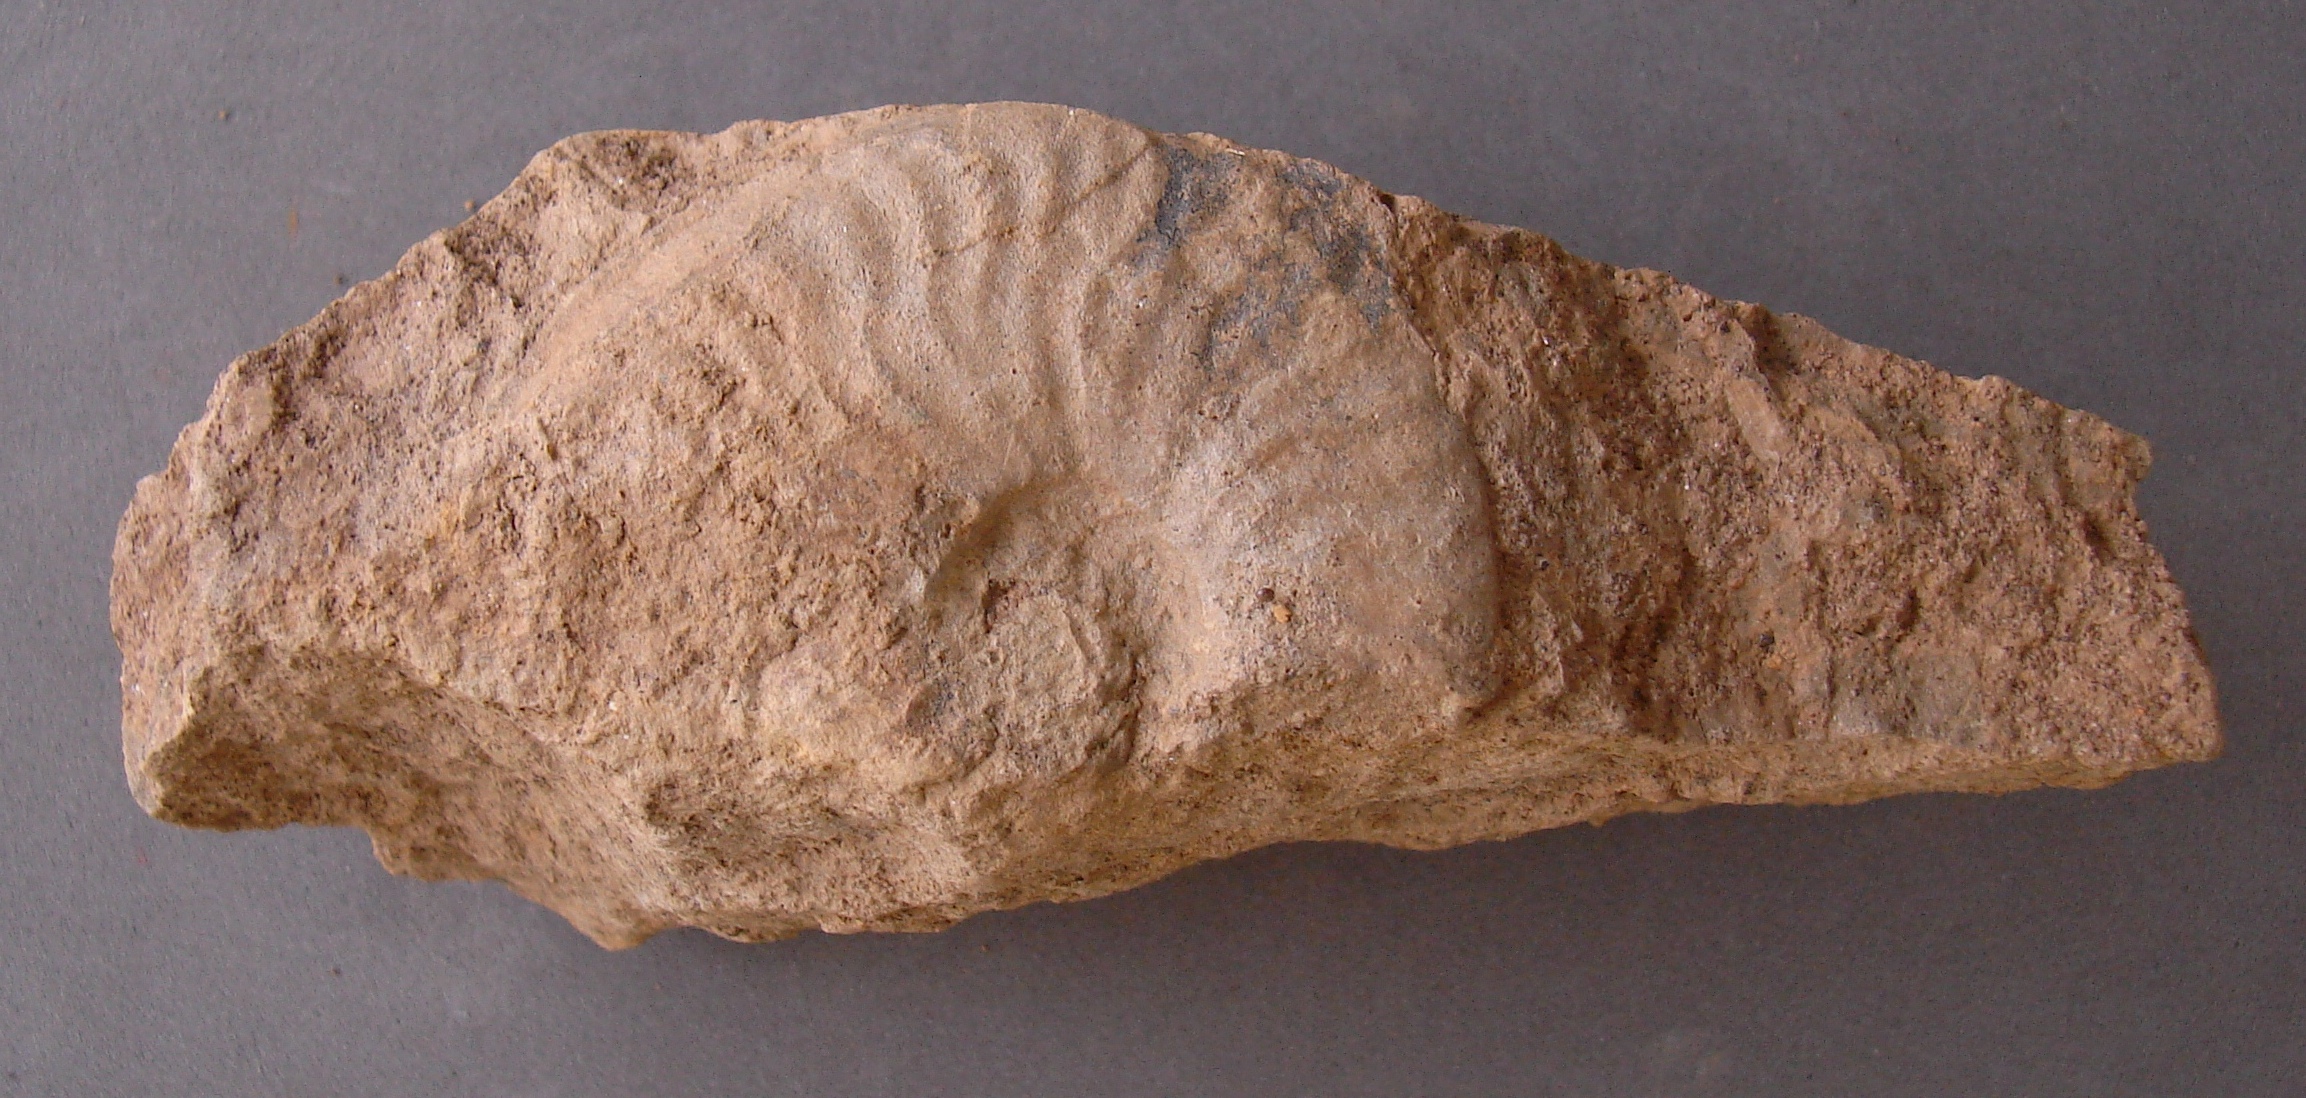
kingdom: Animalia
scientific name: Animalia
